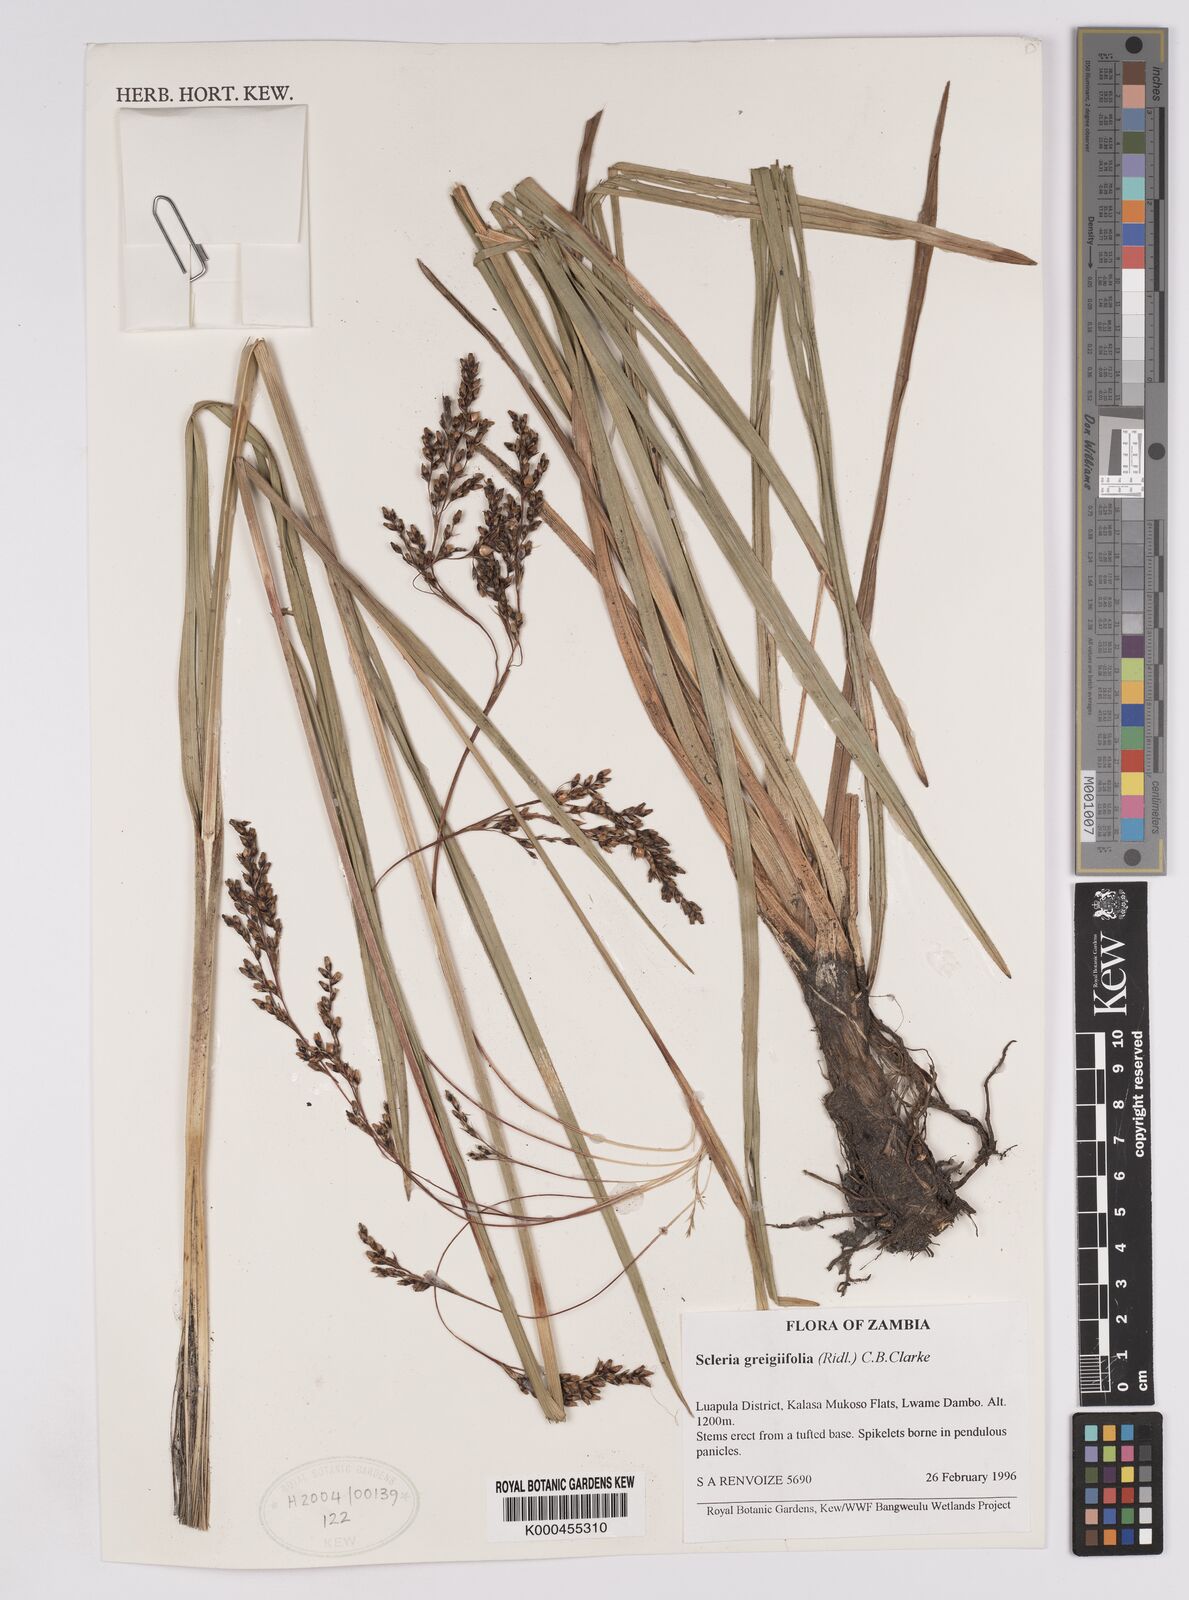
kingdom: Plantae
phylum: Tracheophyta
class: Liliopsida
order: Poales
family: Cyperaceae
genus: Scleria
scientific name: Scleria greigiifolia
